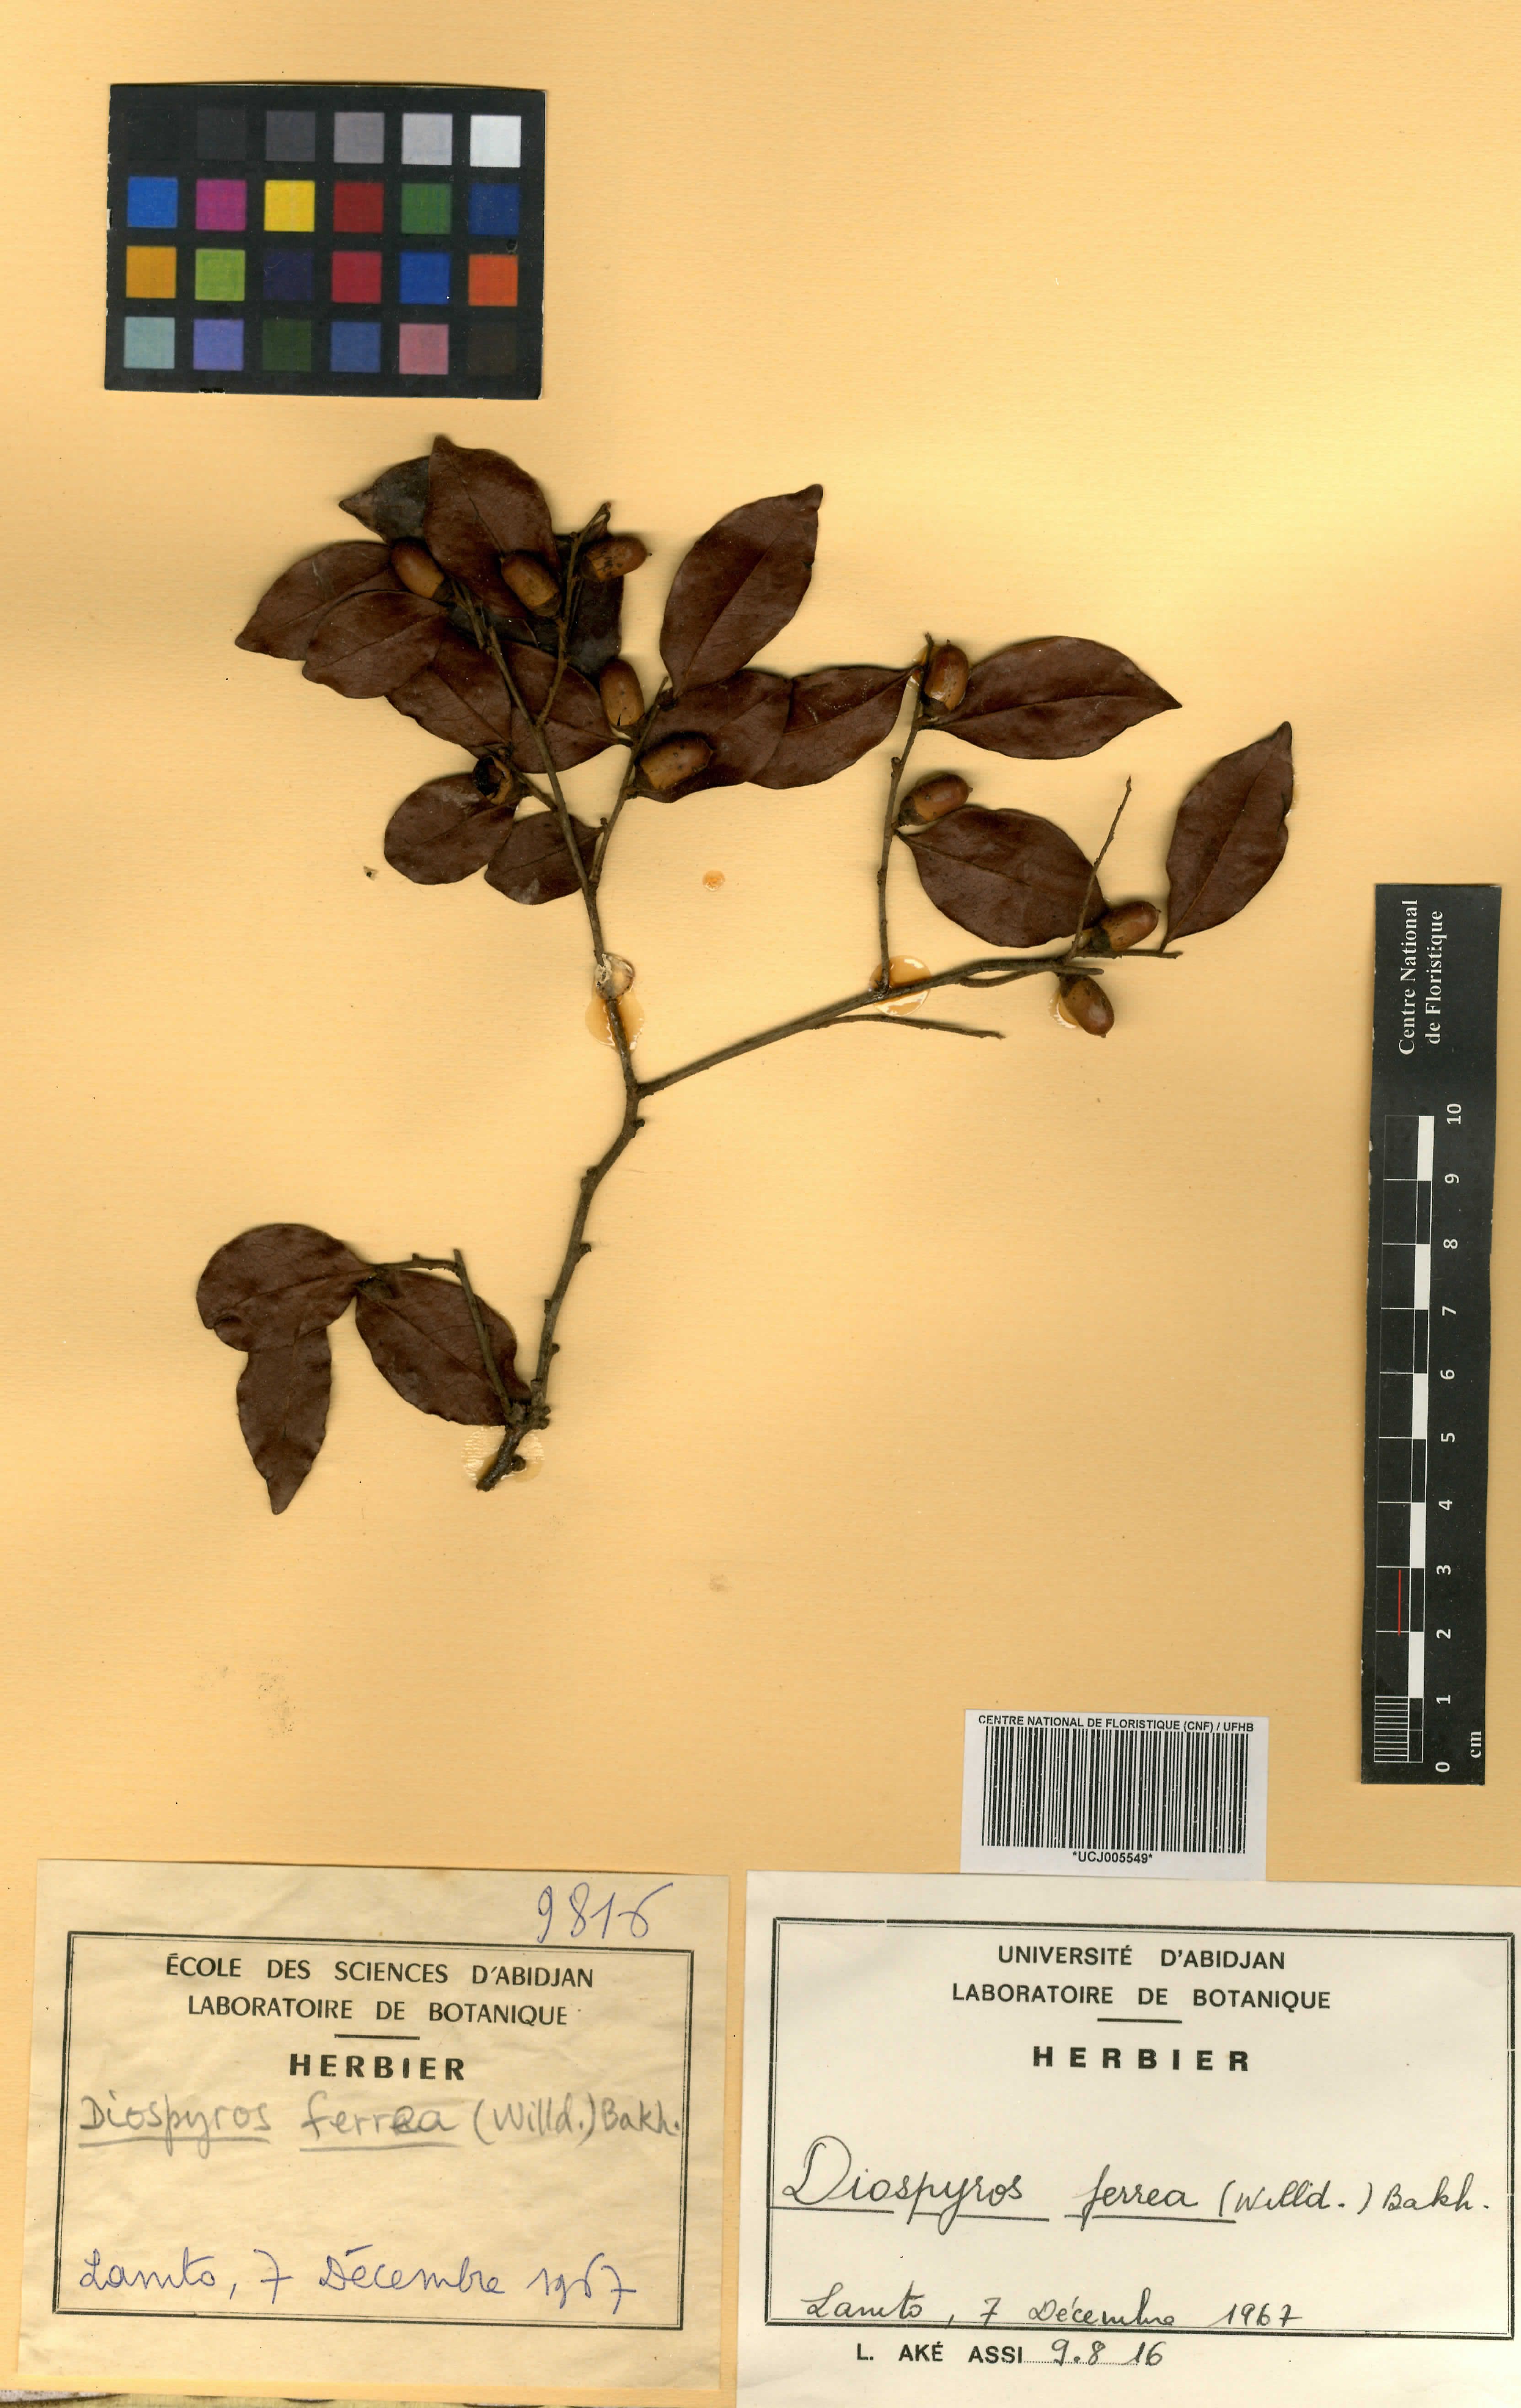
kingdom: Plantae
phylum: Tracheophyta
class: Magnoliopsida
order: Ericales
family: Ebenaceae
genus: Diospyros
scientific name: Diospyros ferrea
